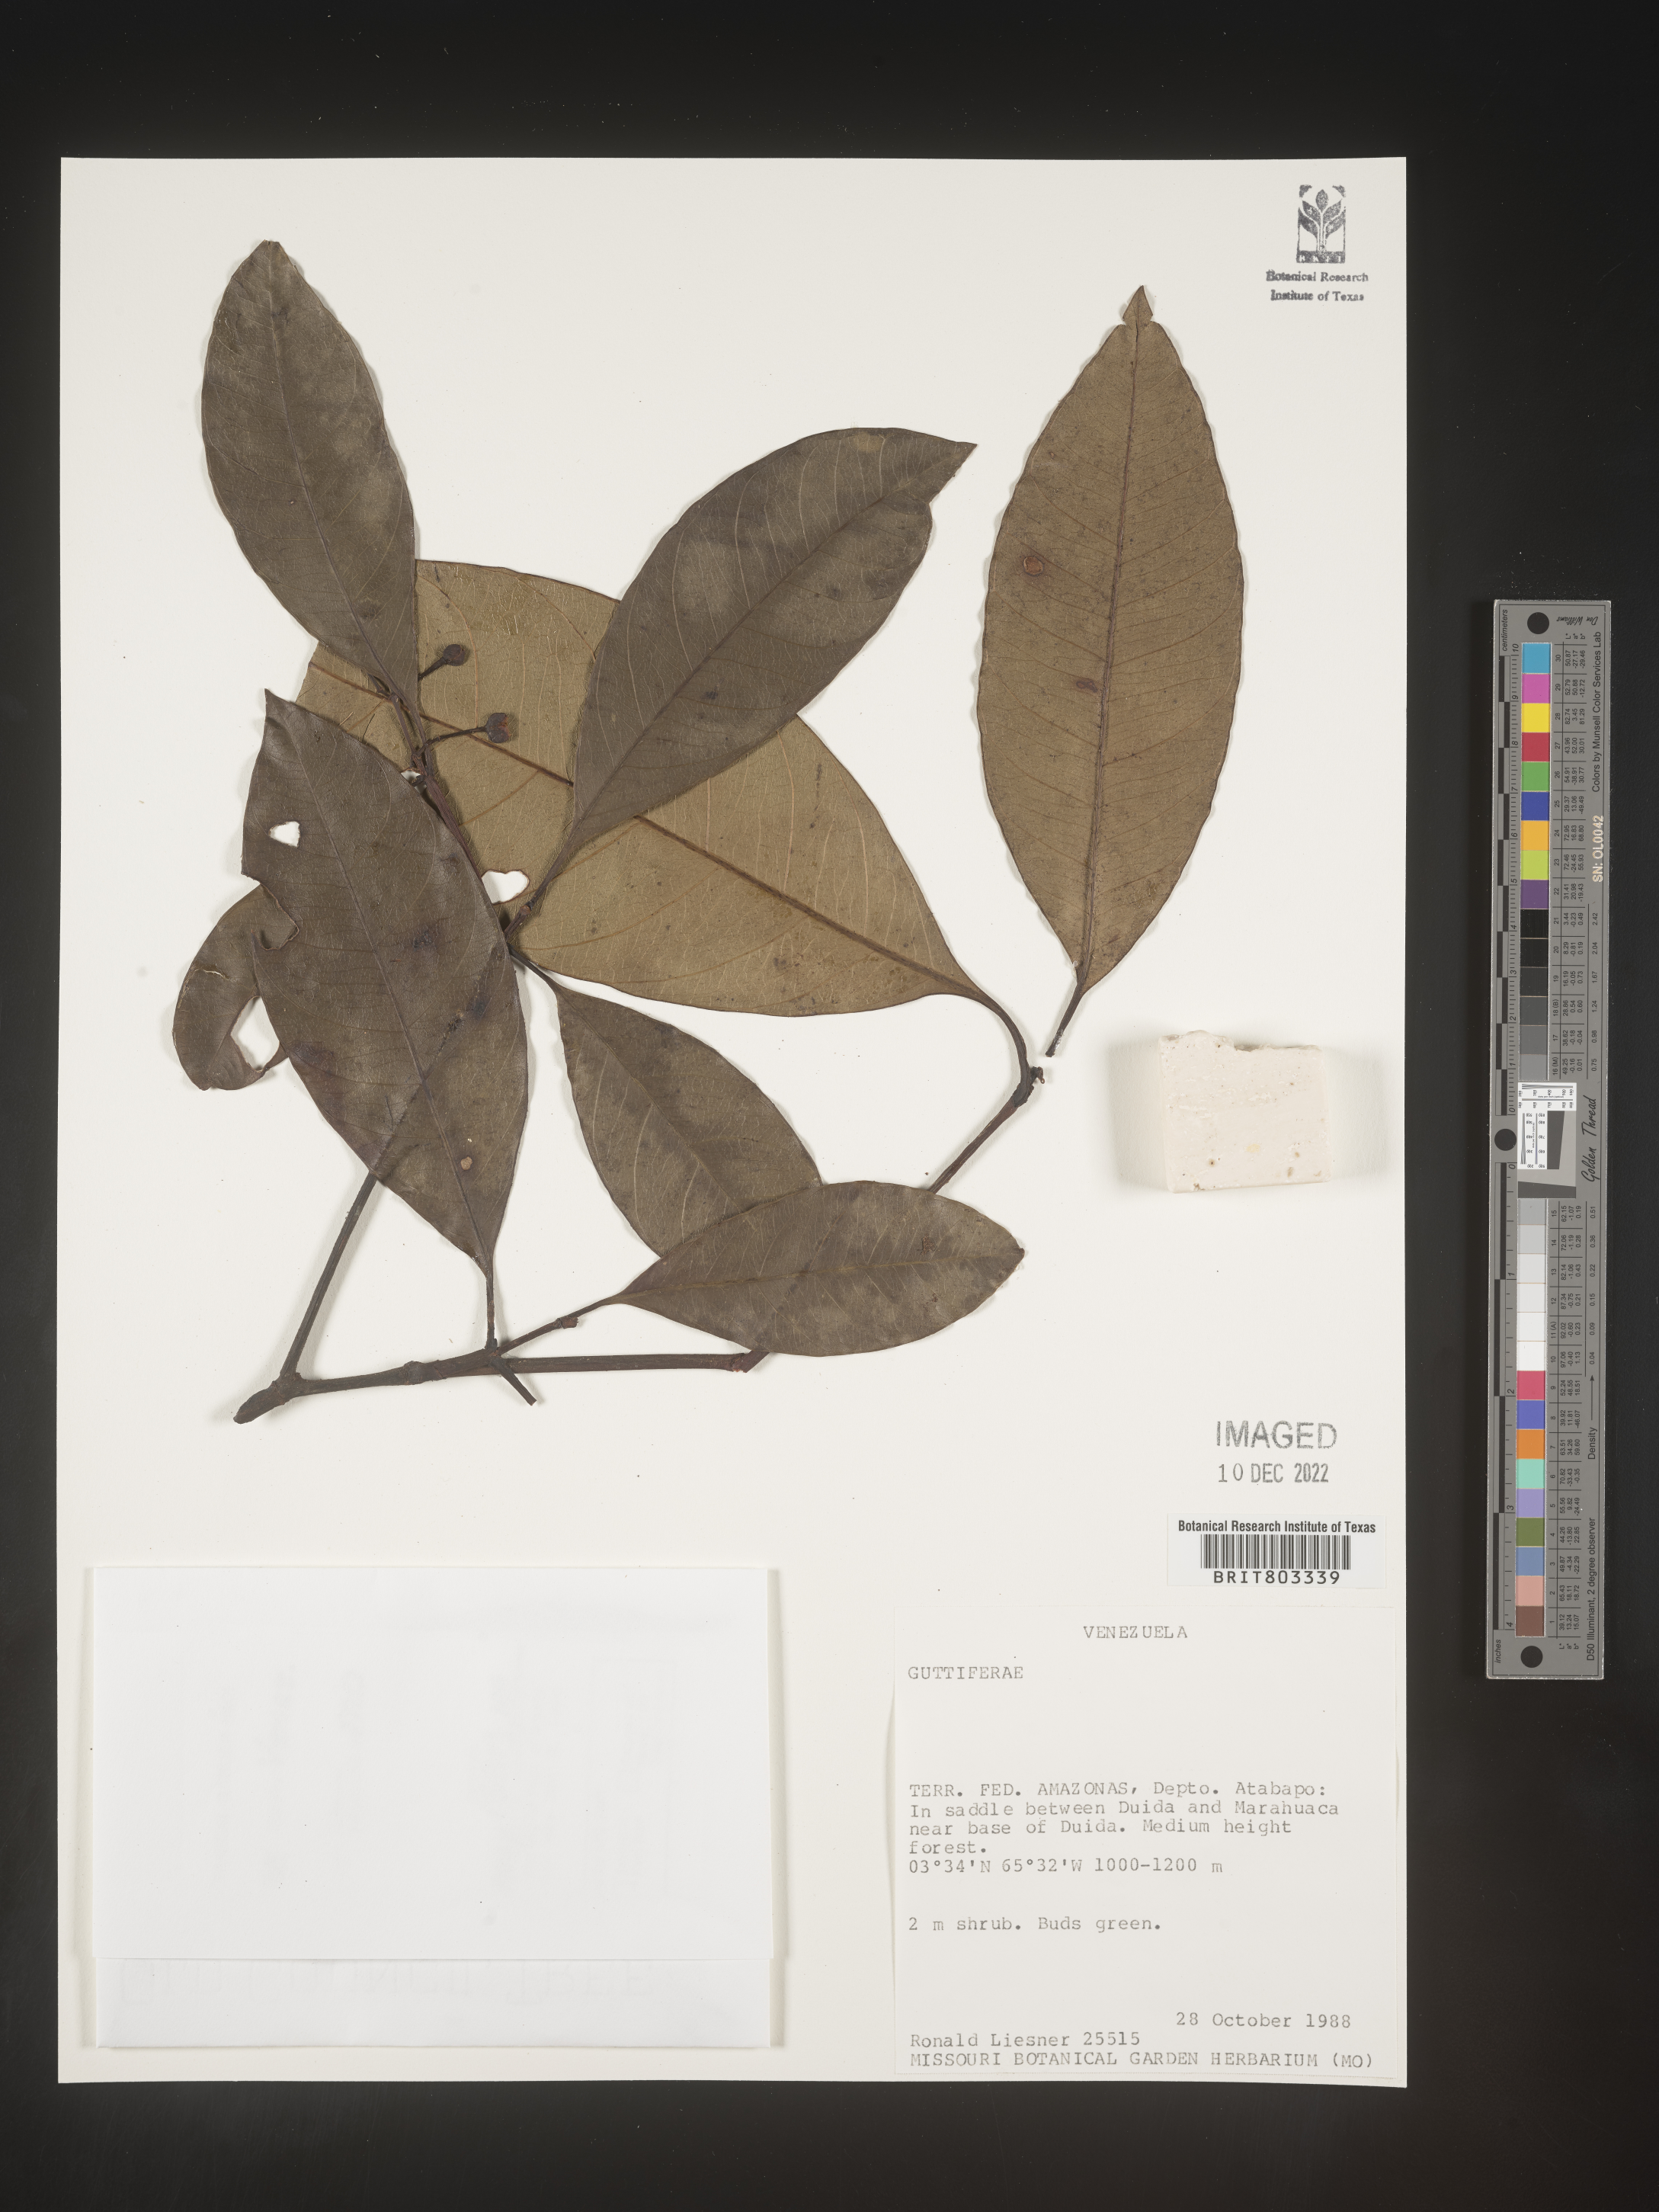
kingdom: Plantae
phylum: Tracheophyta
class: Magnoliopsida
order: Malpighiales
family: Clusiaceae
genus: Tovomita
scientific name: Tovomita
